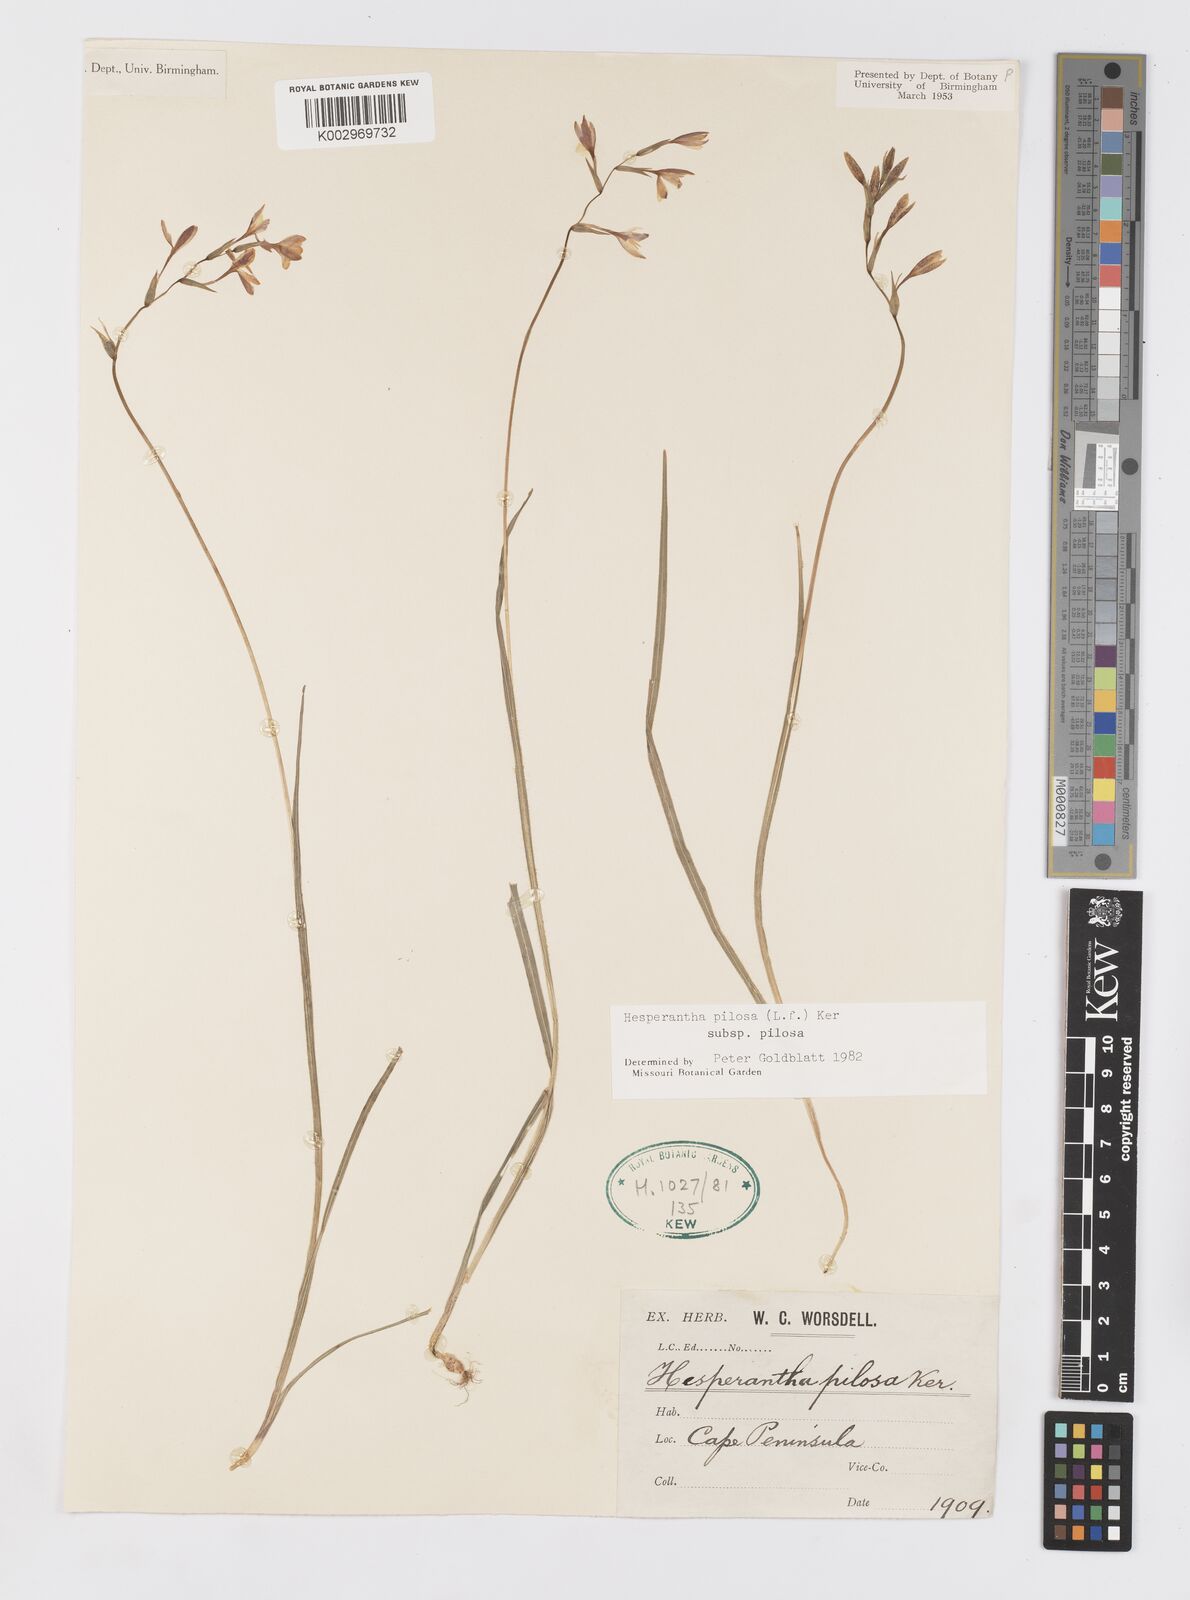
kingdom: Plantae
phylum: Tracheophyta
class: Liliopsida
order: Asparagales
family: Iridaceae
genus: Hesperantha
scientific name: Hesperantha pilosa
